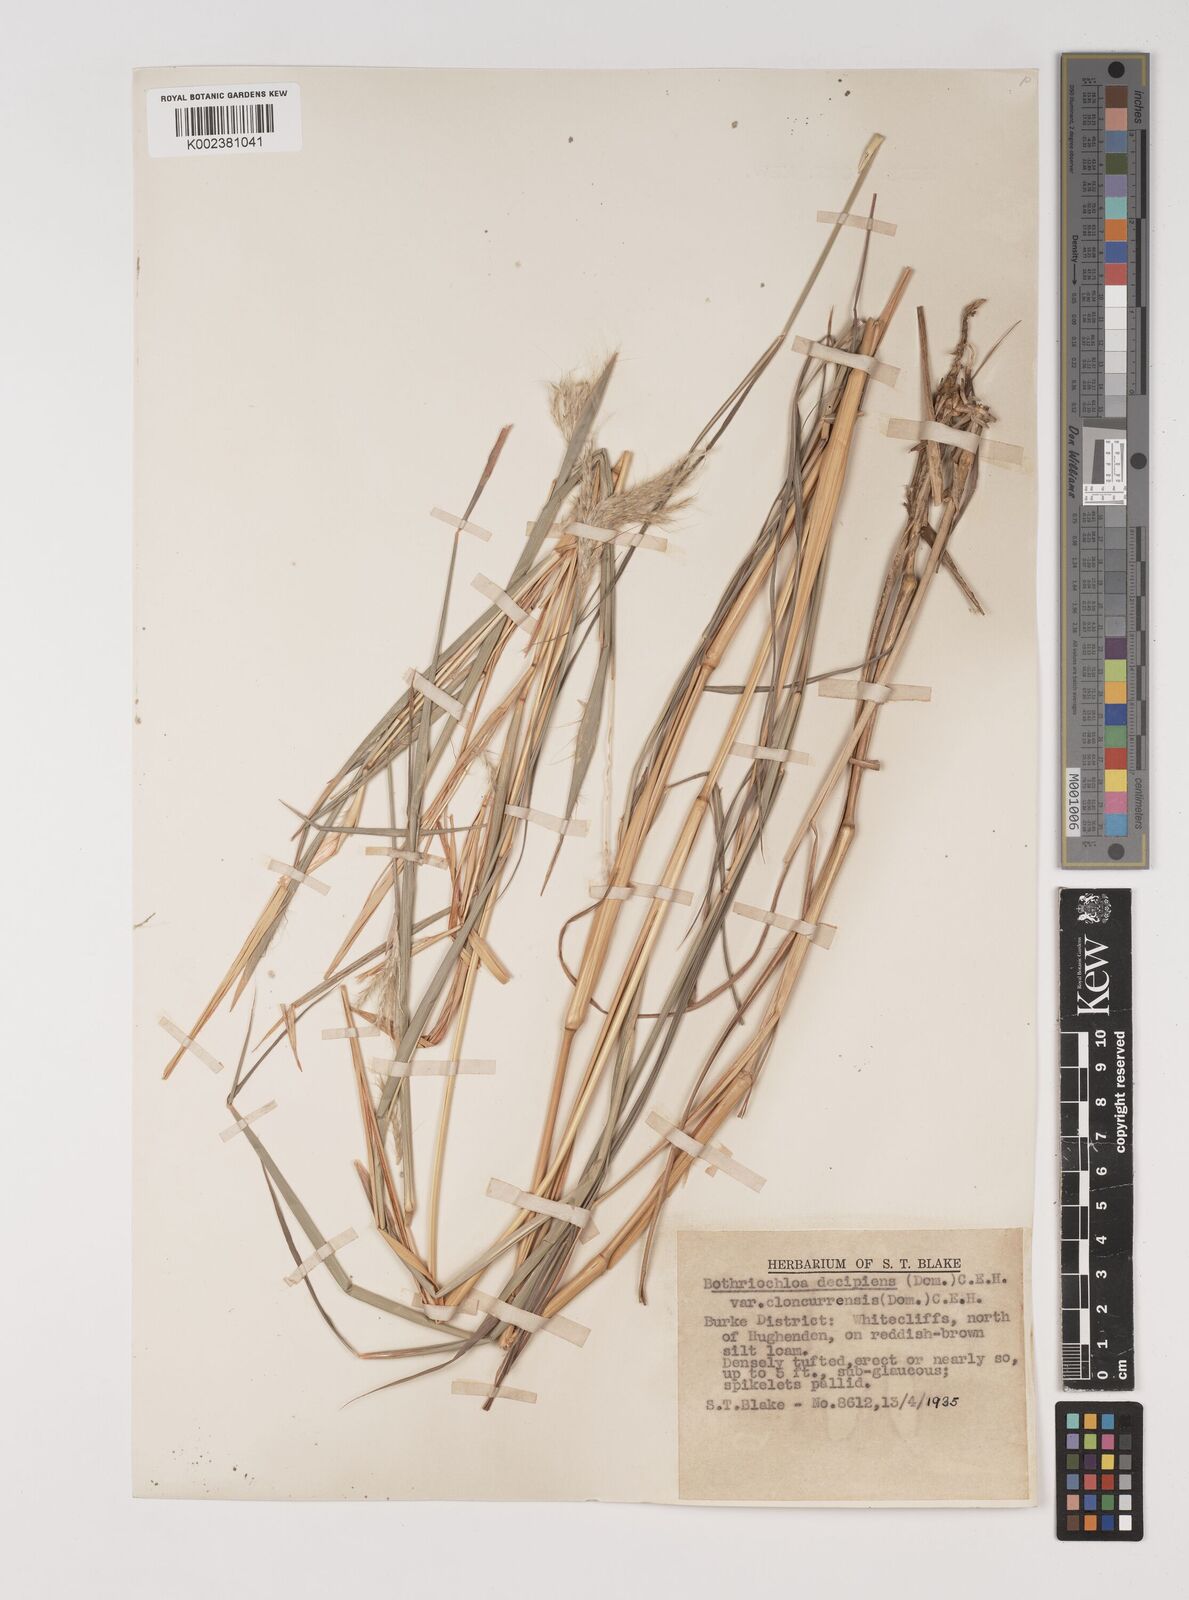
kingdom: Plantae
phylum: Tracheophyta
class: Liliopsida
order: Poales
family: Poaceae
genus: Bothriochloa
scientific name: Bothriochloa decipiens
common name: Pitted-bluegrass
